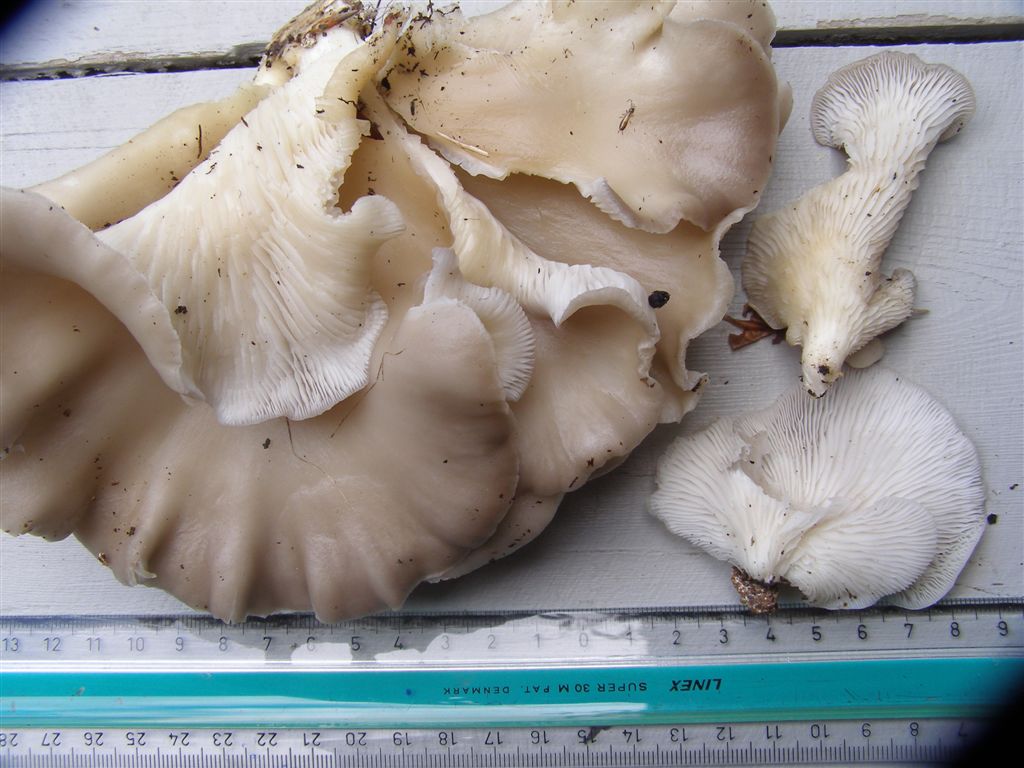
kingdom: Fungi
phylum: Basidiomycota
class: Agaricomycetes
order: Agaricales
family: Pleurotaceae
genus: Pleurotus
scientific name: Pleurotus pulmonarius
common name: sommer-østershat
